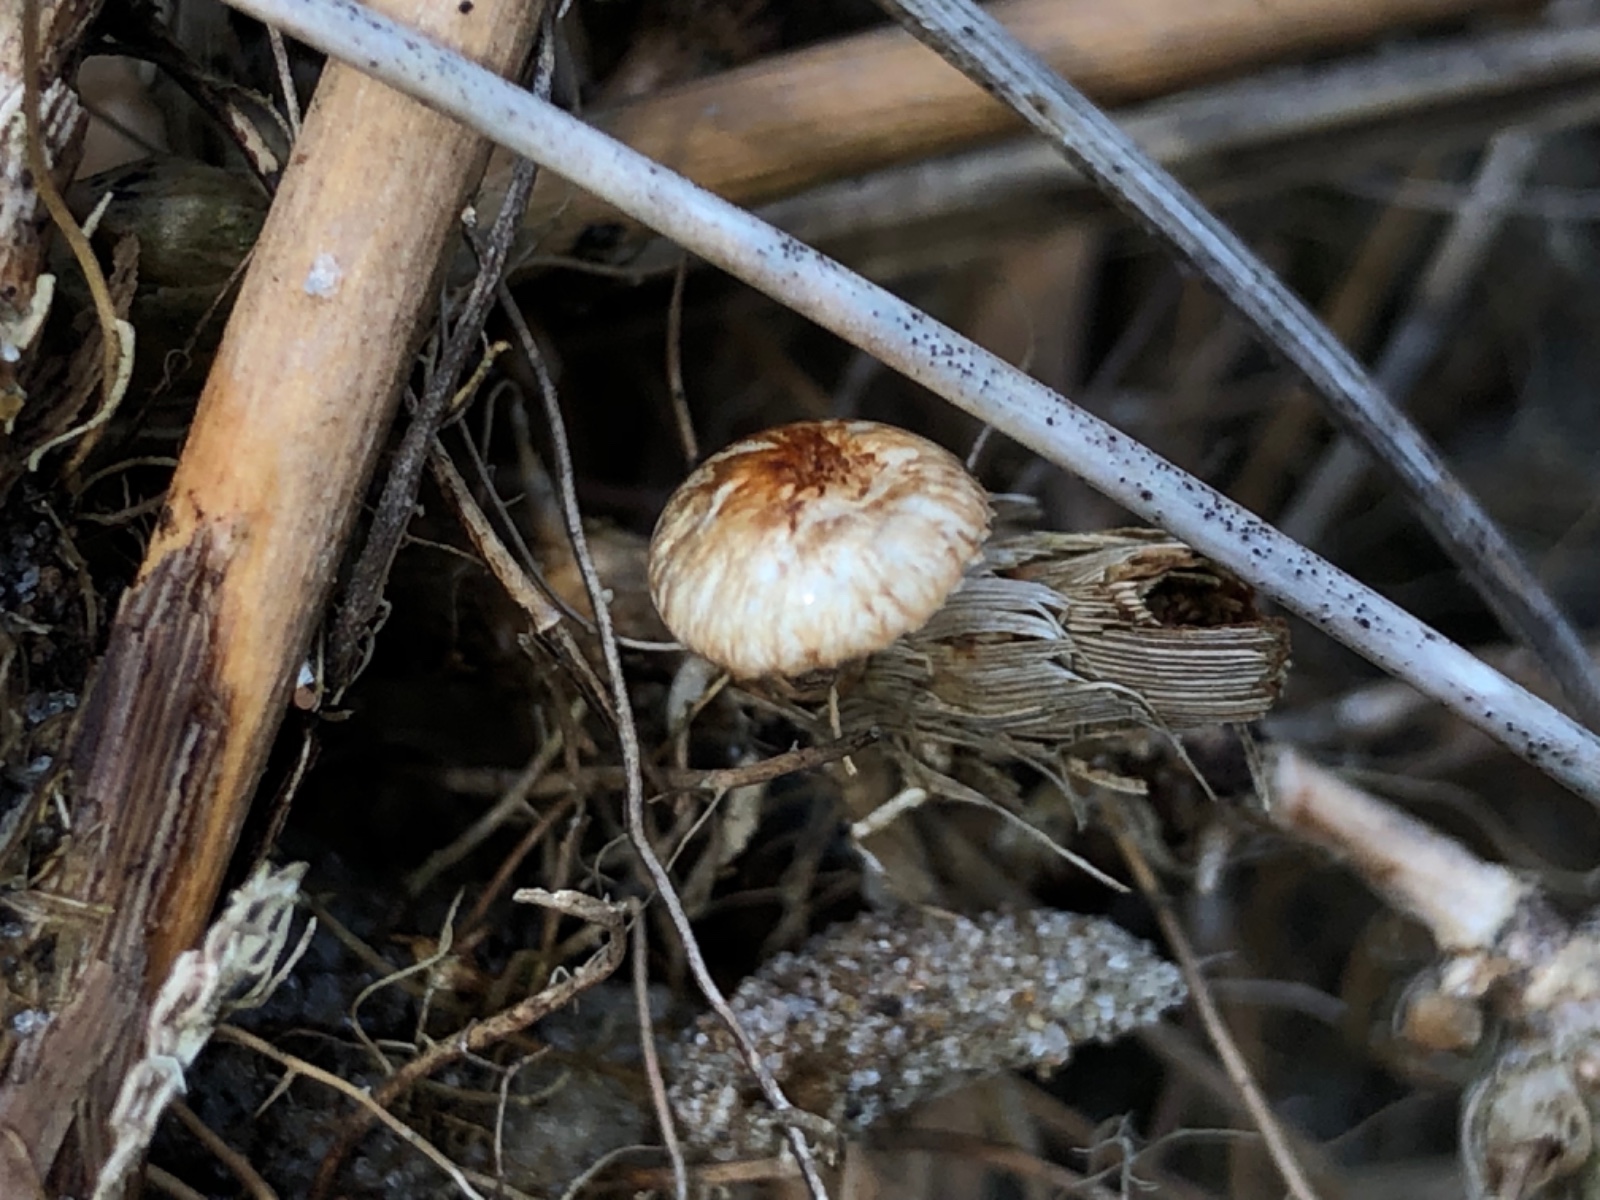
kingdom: Fungi
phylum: Basidiomycota
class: Agaricomycetes
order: Agaricales
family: Marasmiaceae
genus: Crinipellis
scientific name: Crinipellis scabella
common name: børstefod
